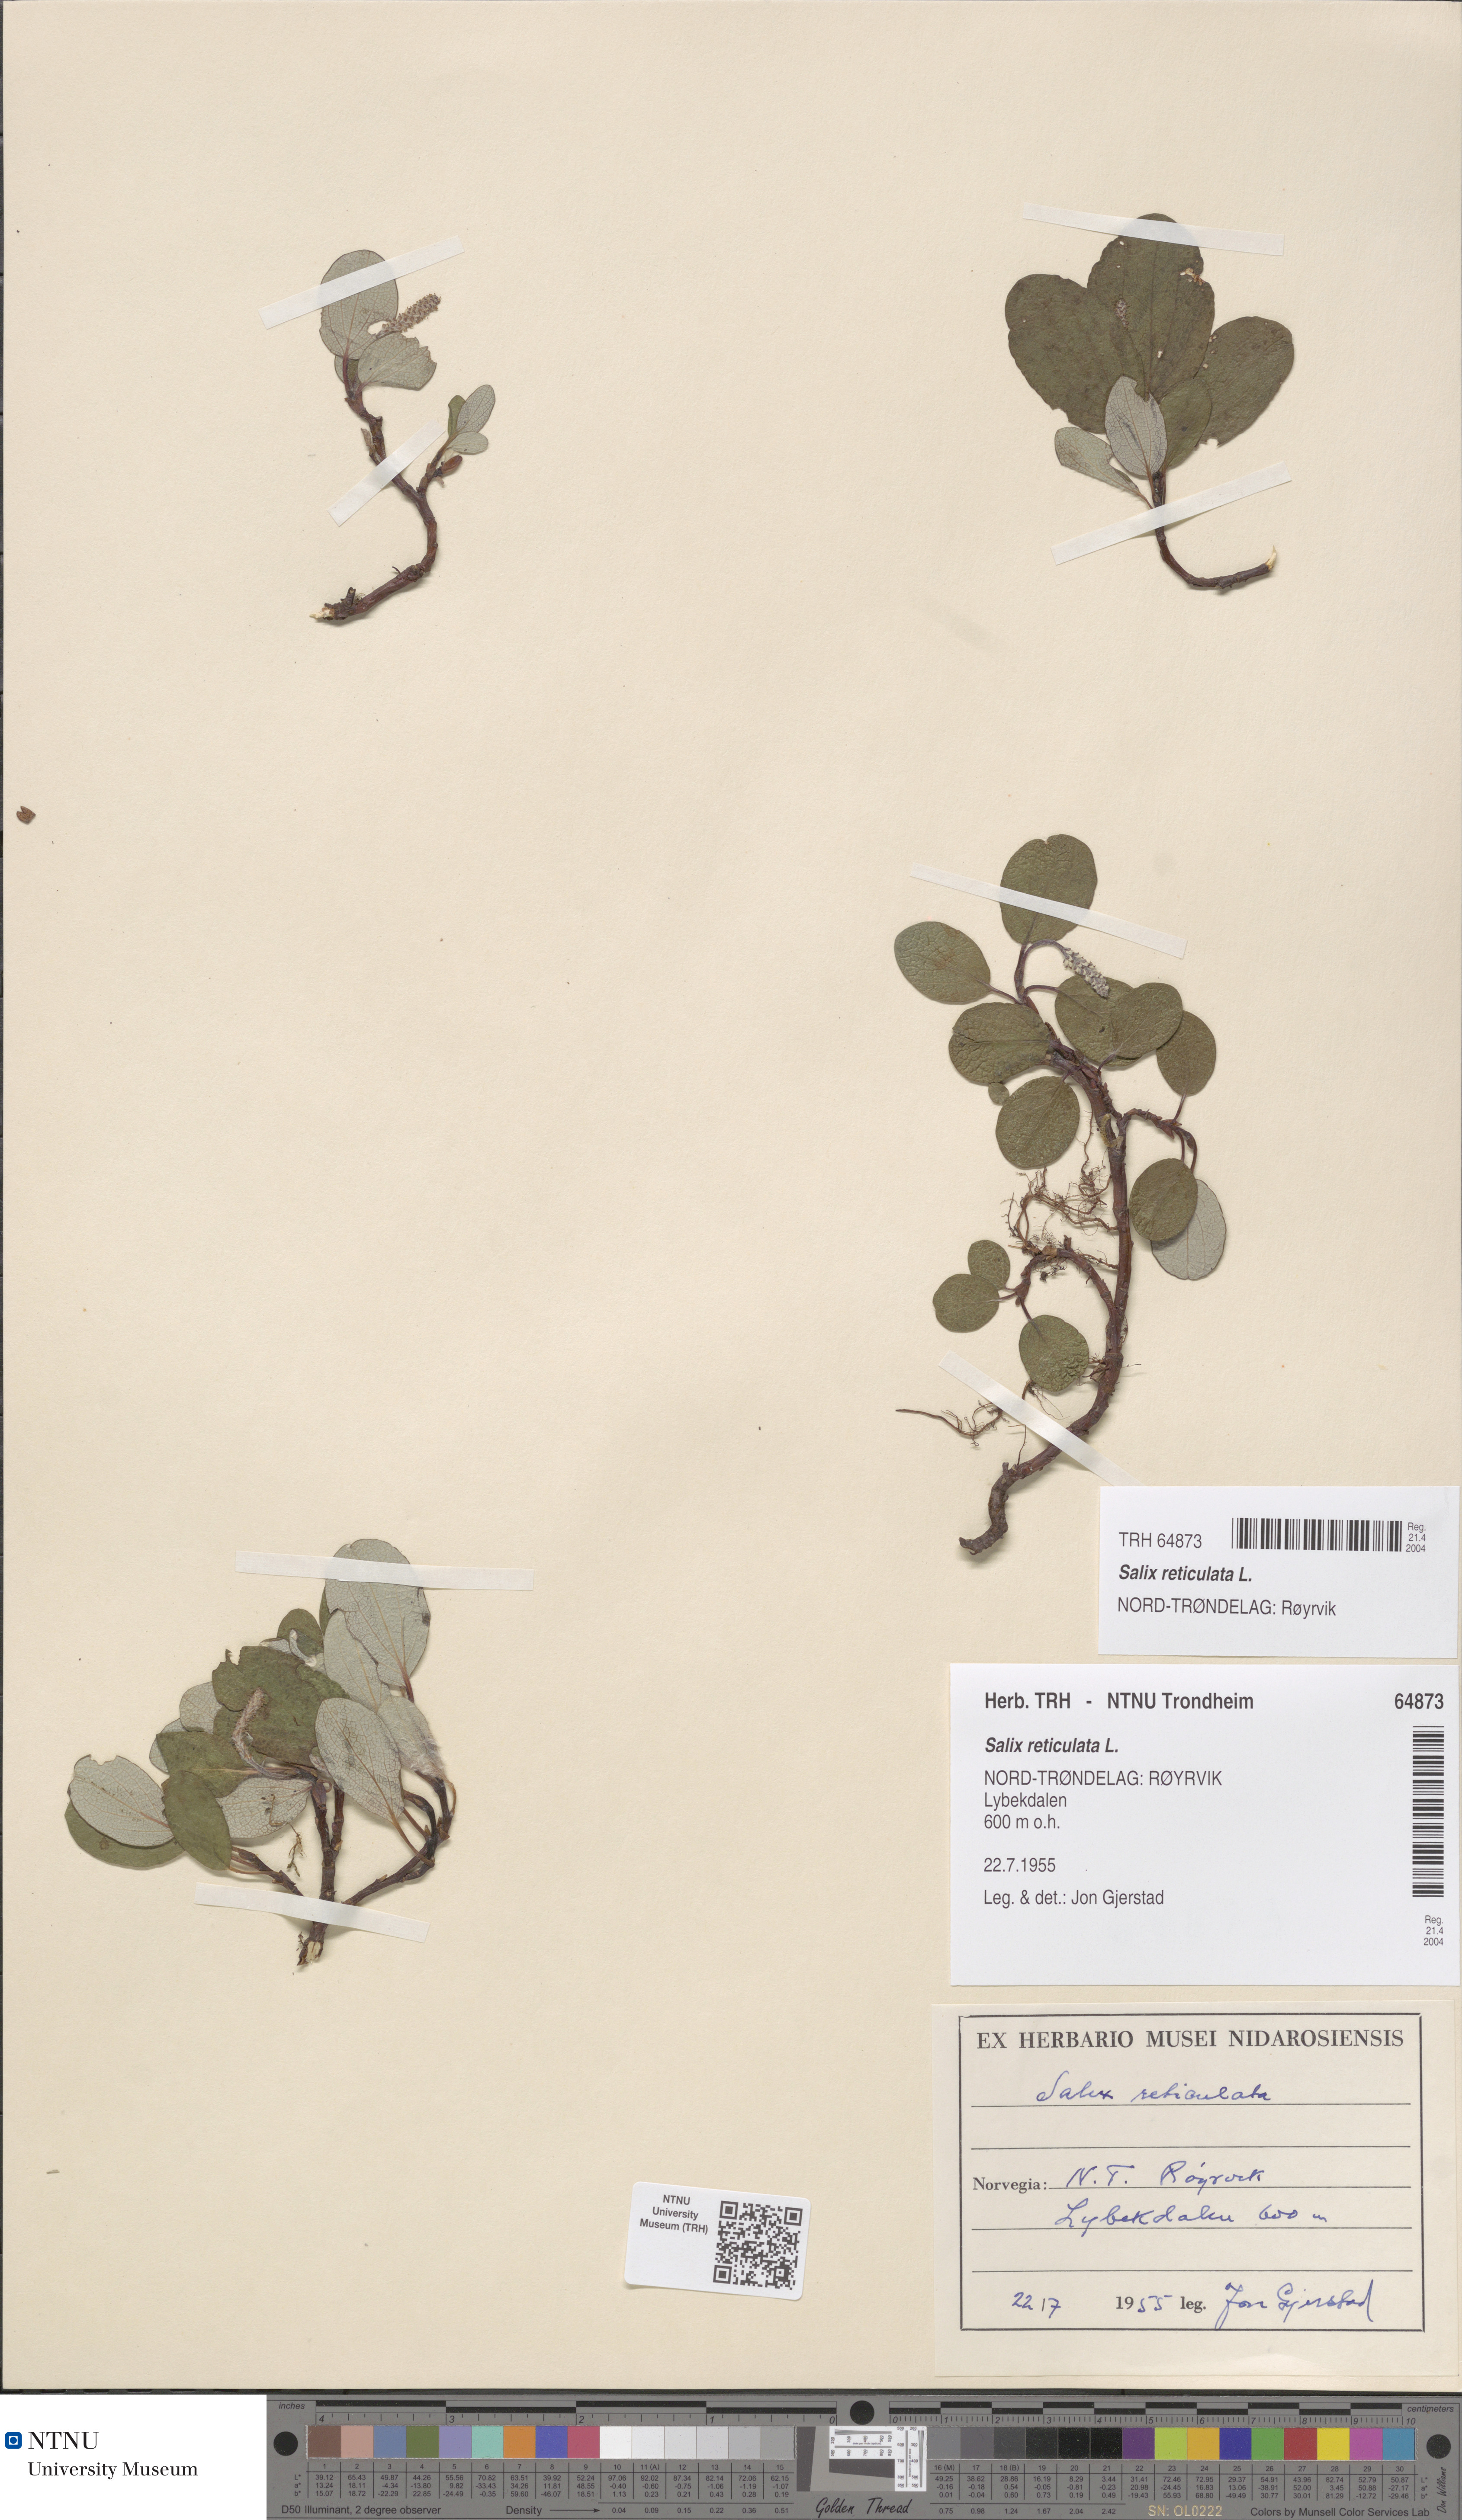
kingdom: Plantae
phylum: Tracheophyta
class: Magnoliopsida
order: Malpighiales
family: Salicaceae
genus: Salix
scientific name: Salix reticulata
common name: Net-leaved willow
